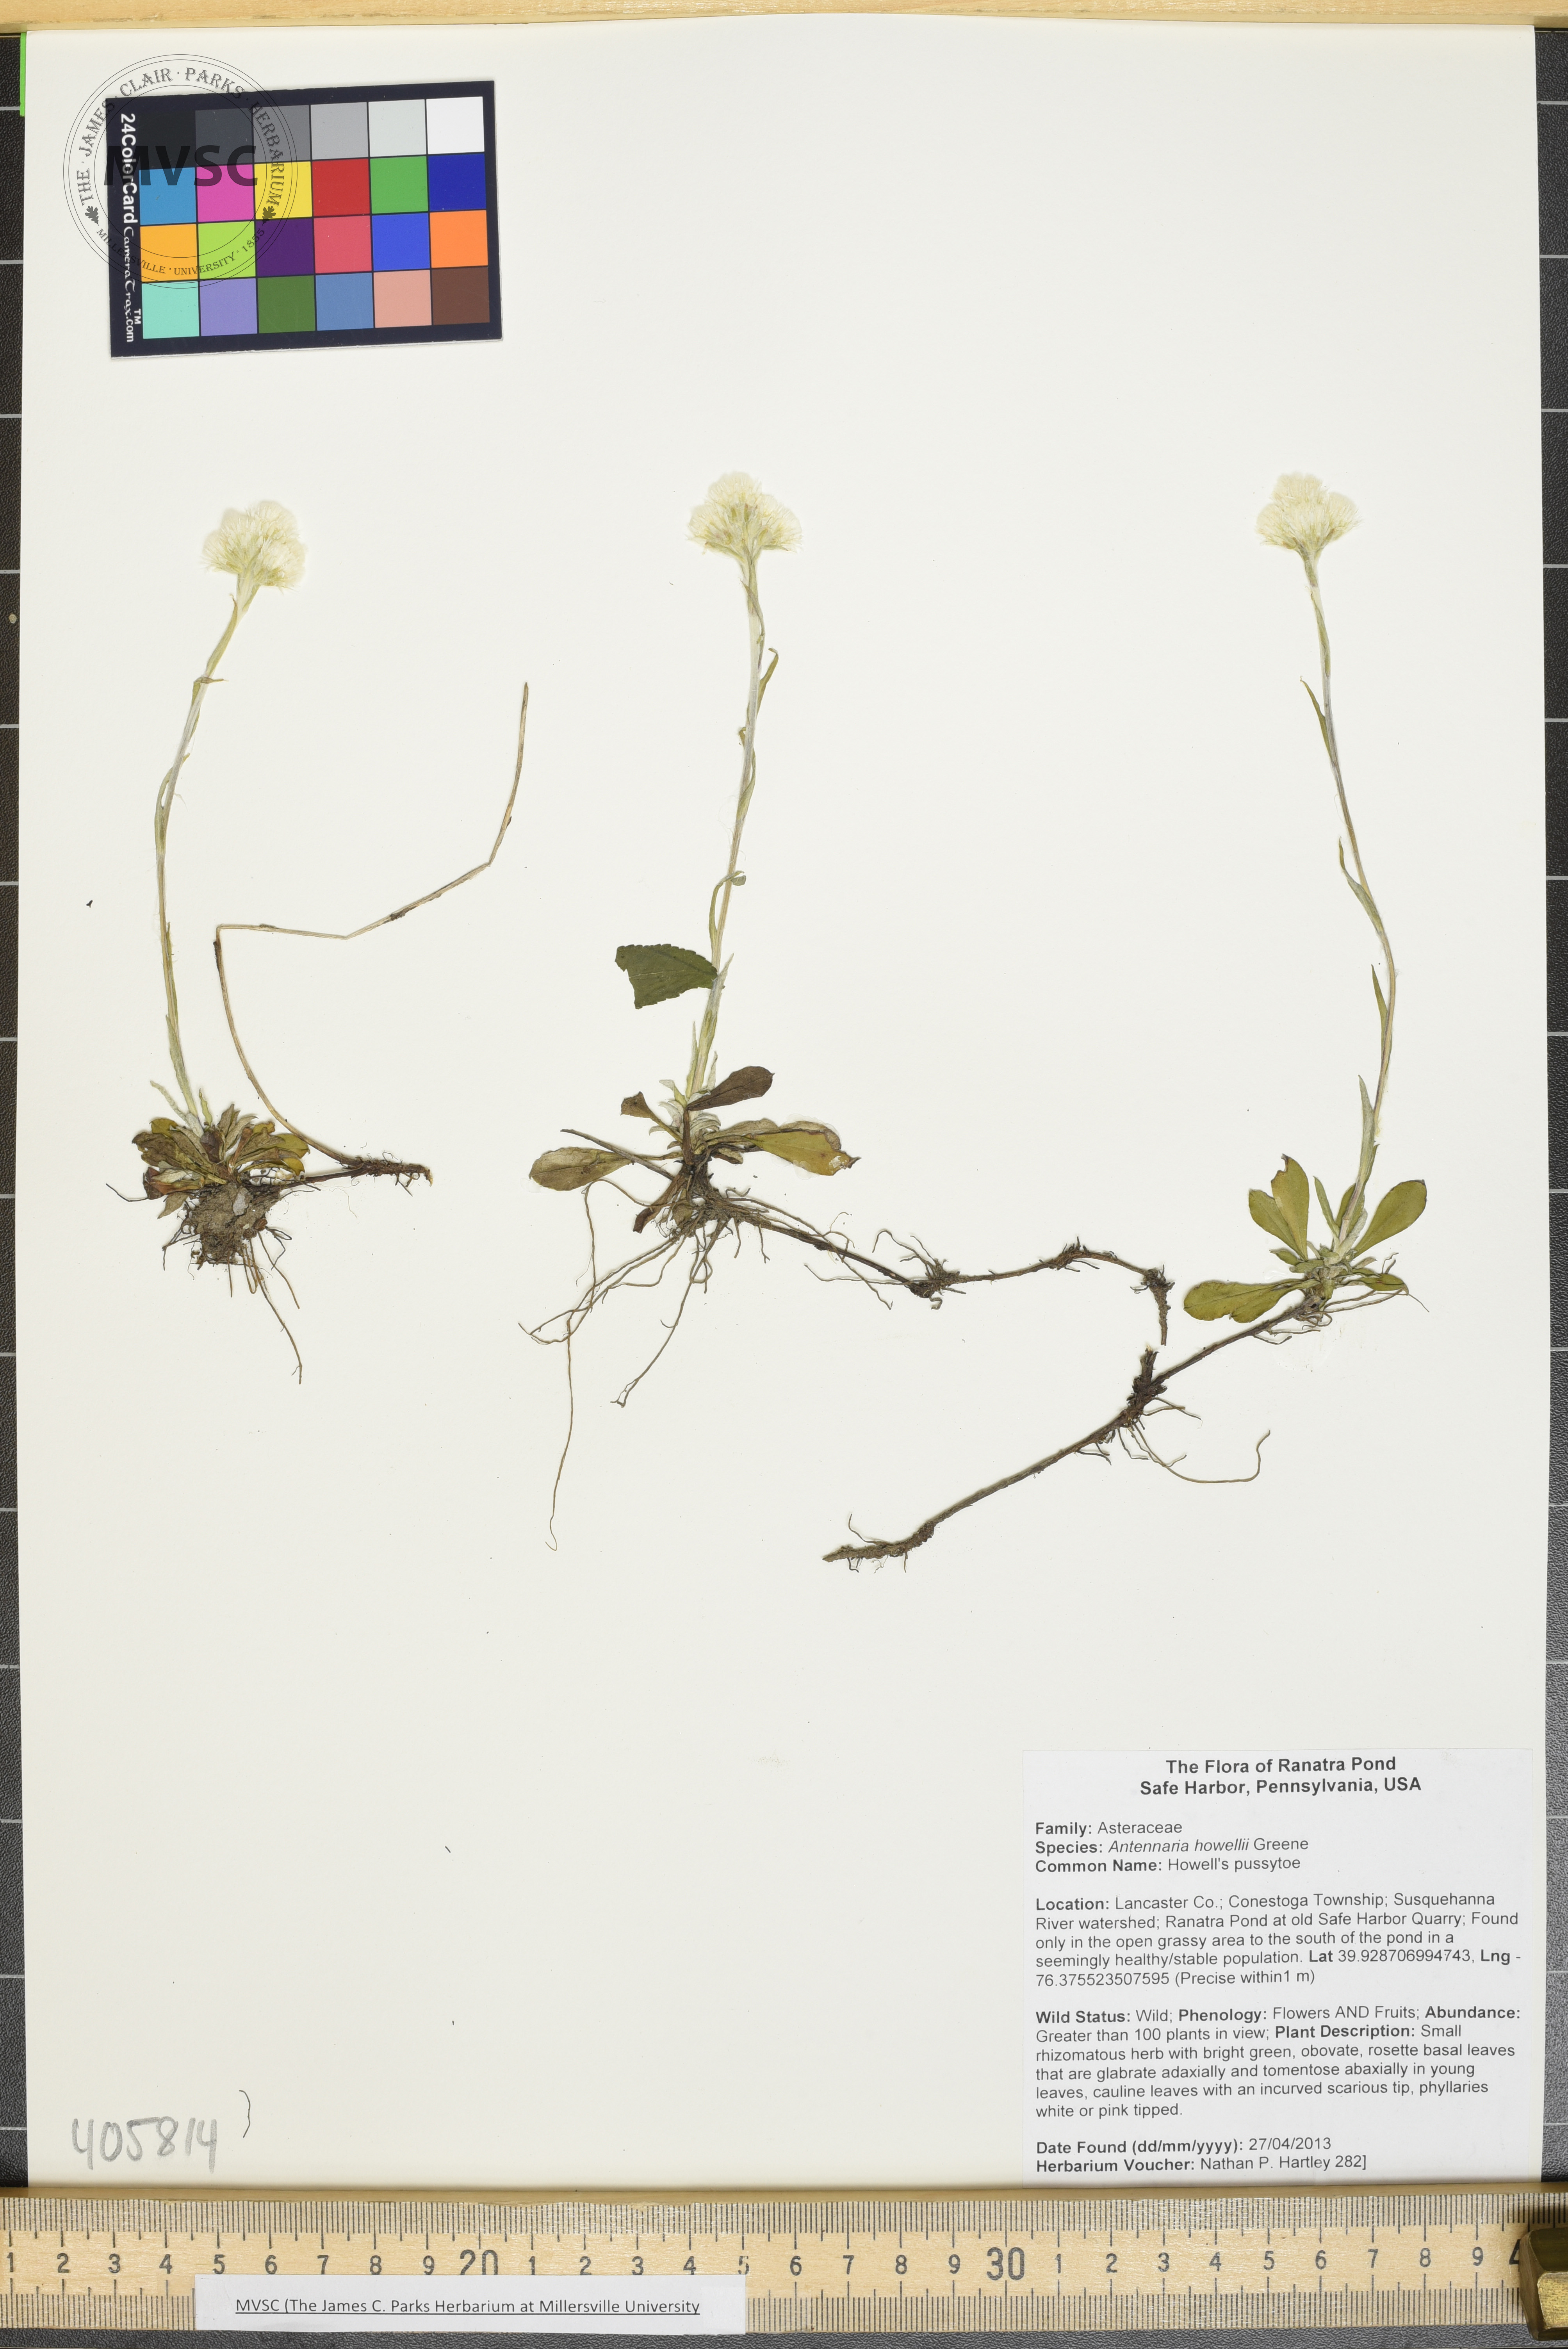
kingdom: Plantae
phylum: Tracheophyta
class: Magnoliopsida
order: Asterales
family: Asteraceae
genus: Antennaria
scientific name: Antennaria howellii
